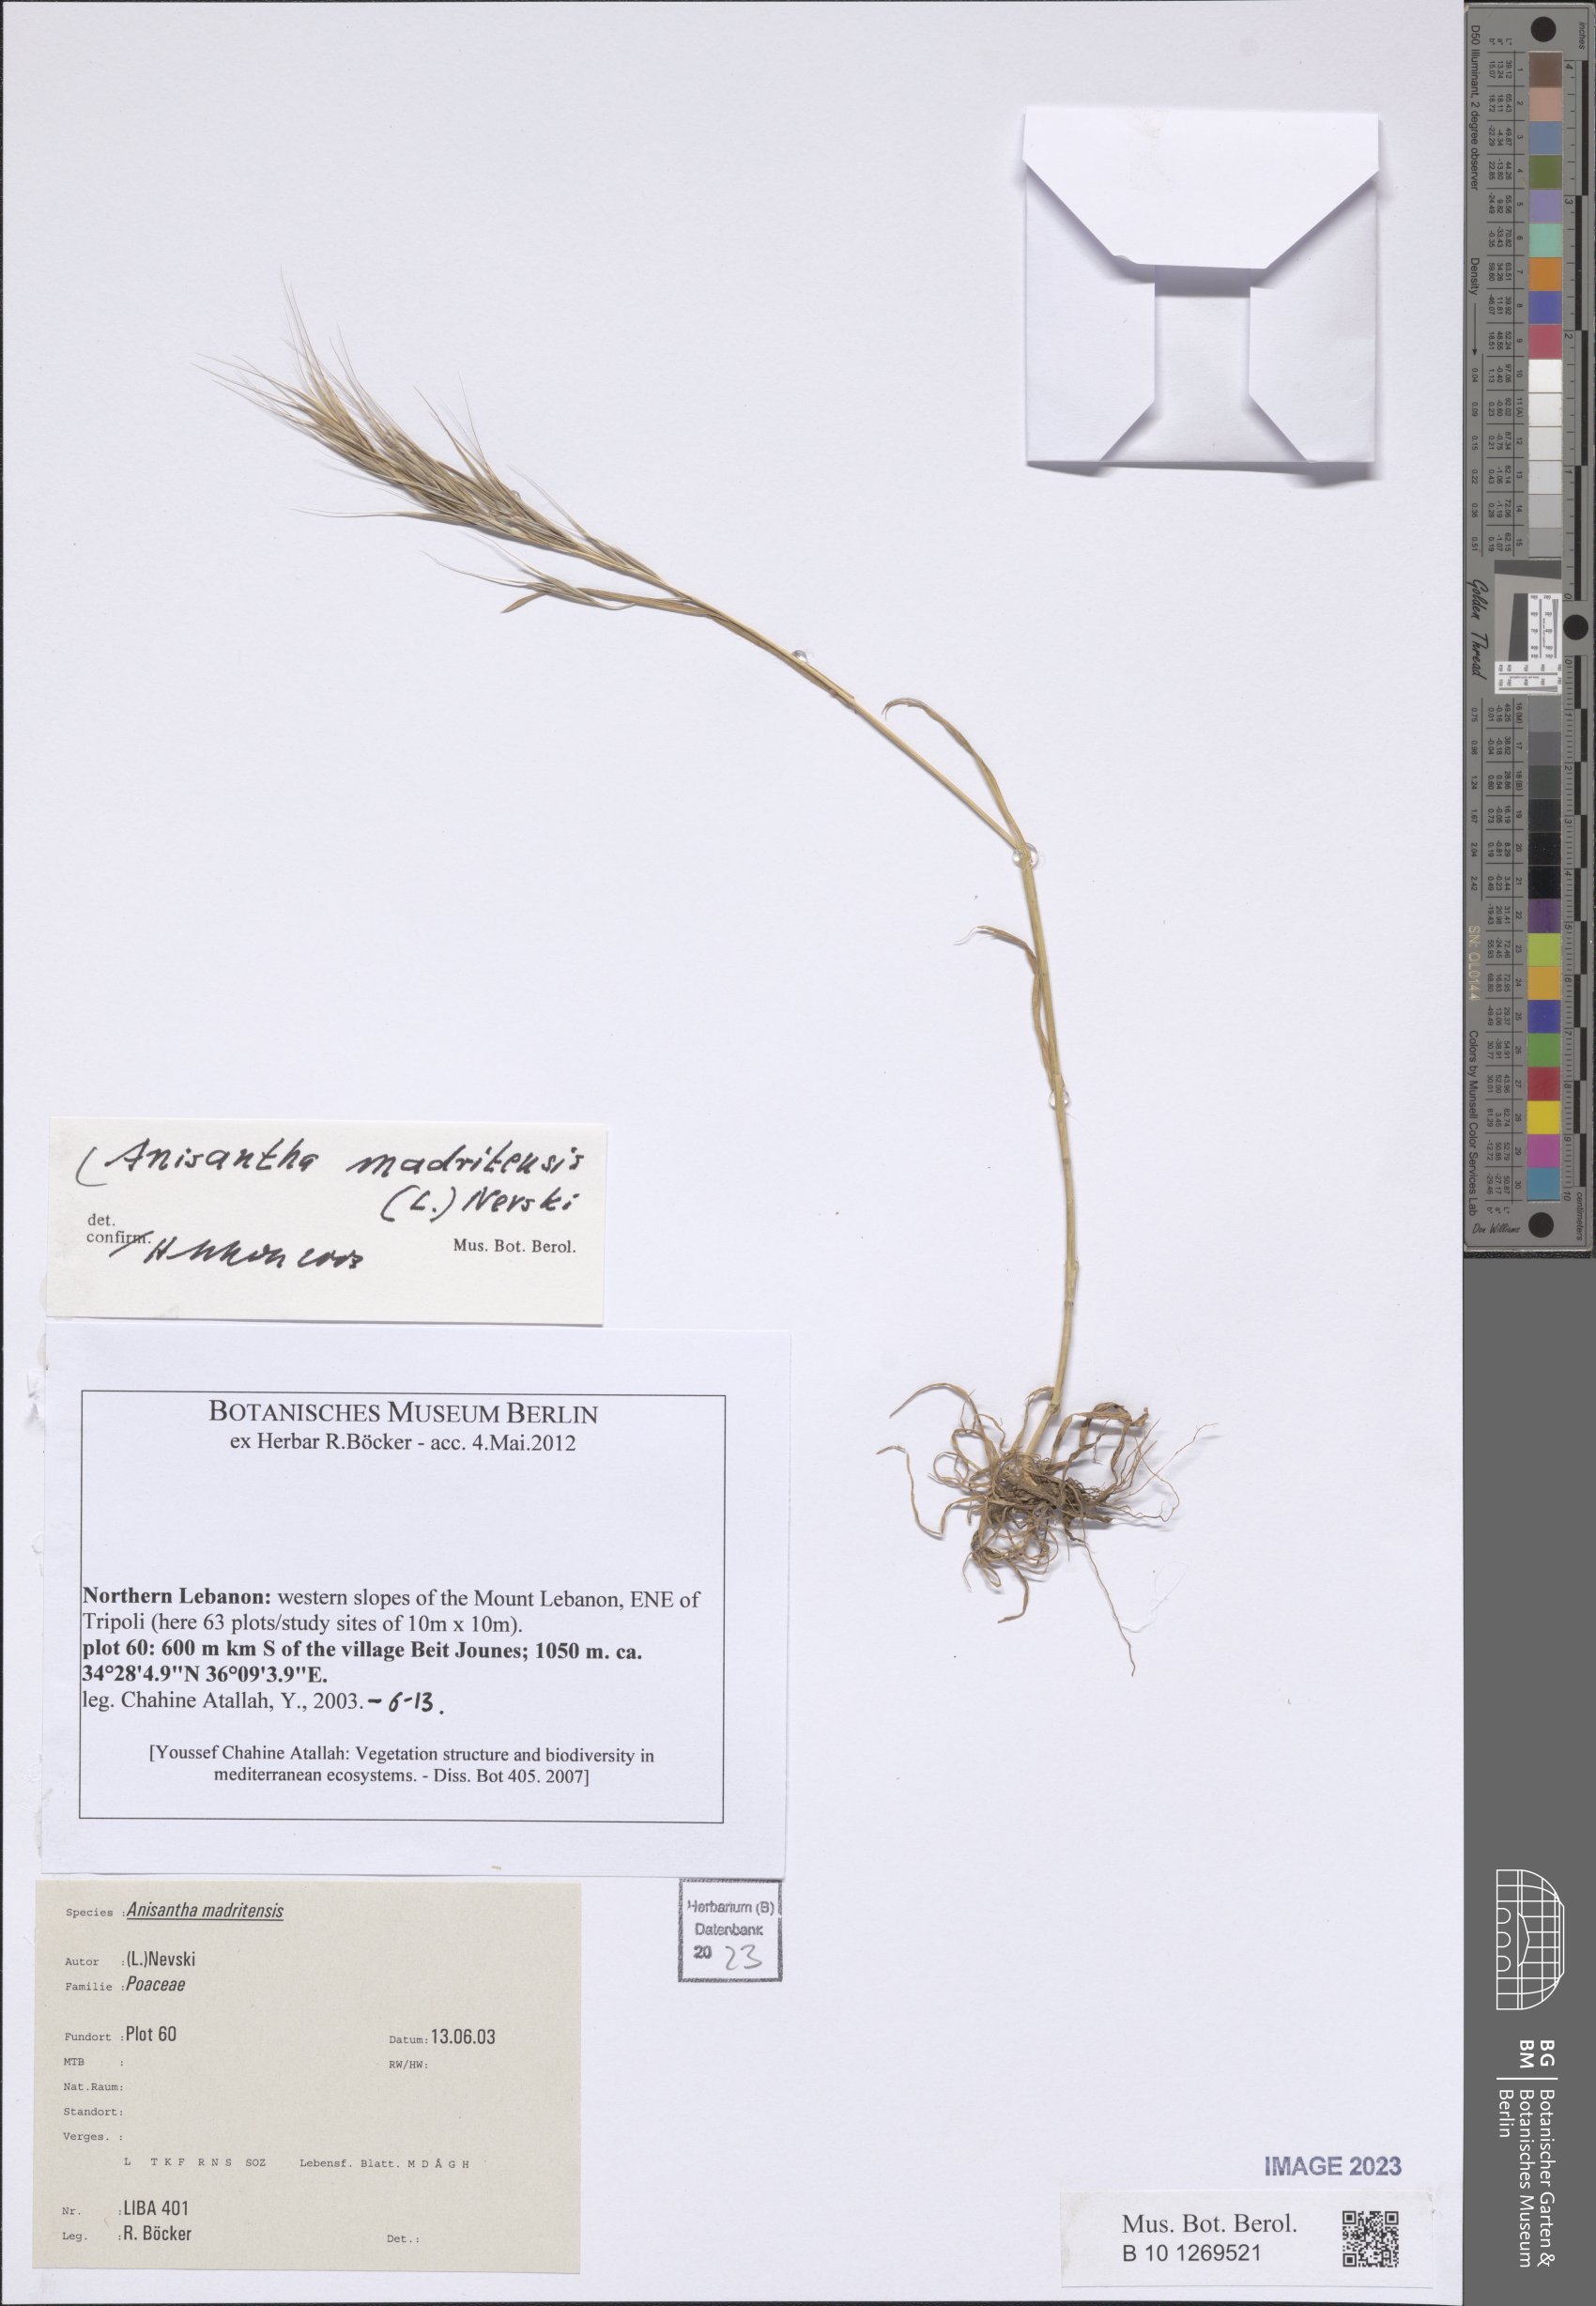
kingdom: Plantae
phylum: Tracheophyta
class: Liliopsida
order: Poales
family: Poaceae
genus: Bromus
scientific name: Bromus madritensis
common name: Compact brome
